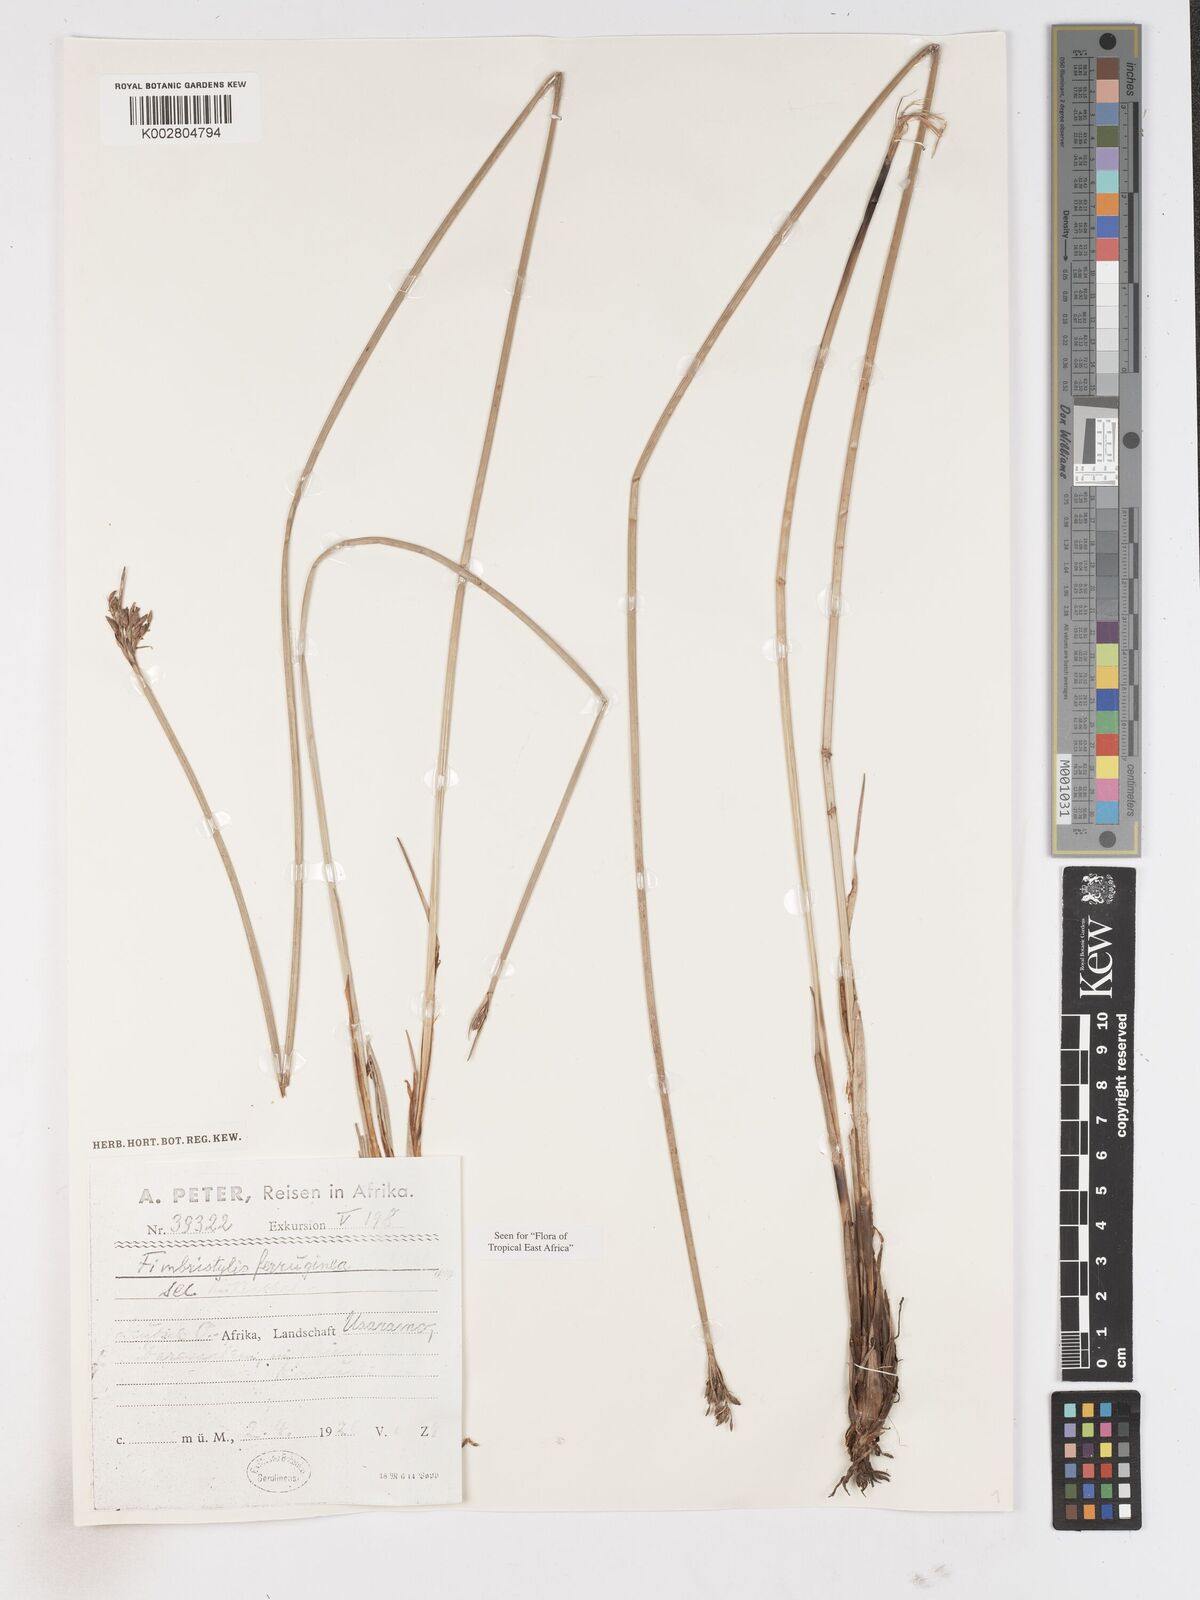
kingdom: Plantae
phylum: Tracheophyta
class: Liliopsida
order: Poales
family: Cyperaceae
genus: Fimbristylis
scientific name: Fimbristylis ferruginea
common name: West indian fimbry
